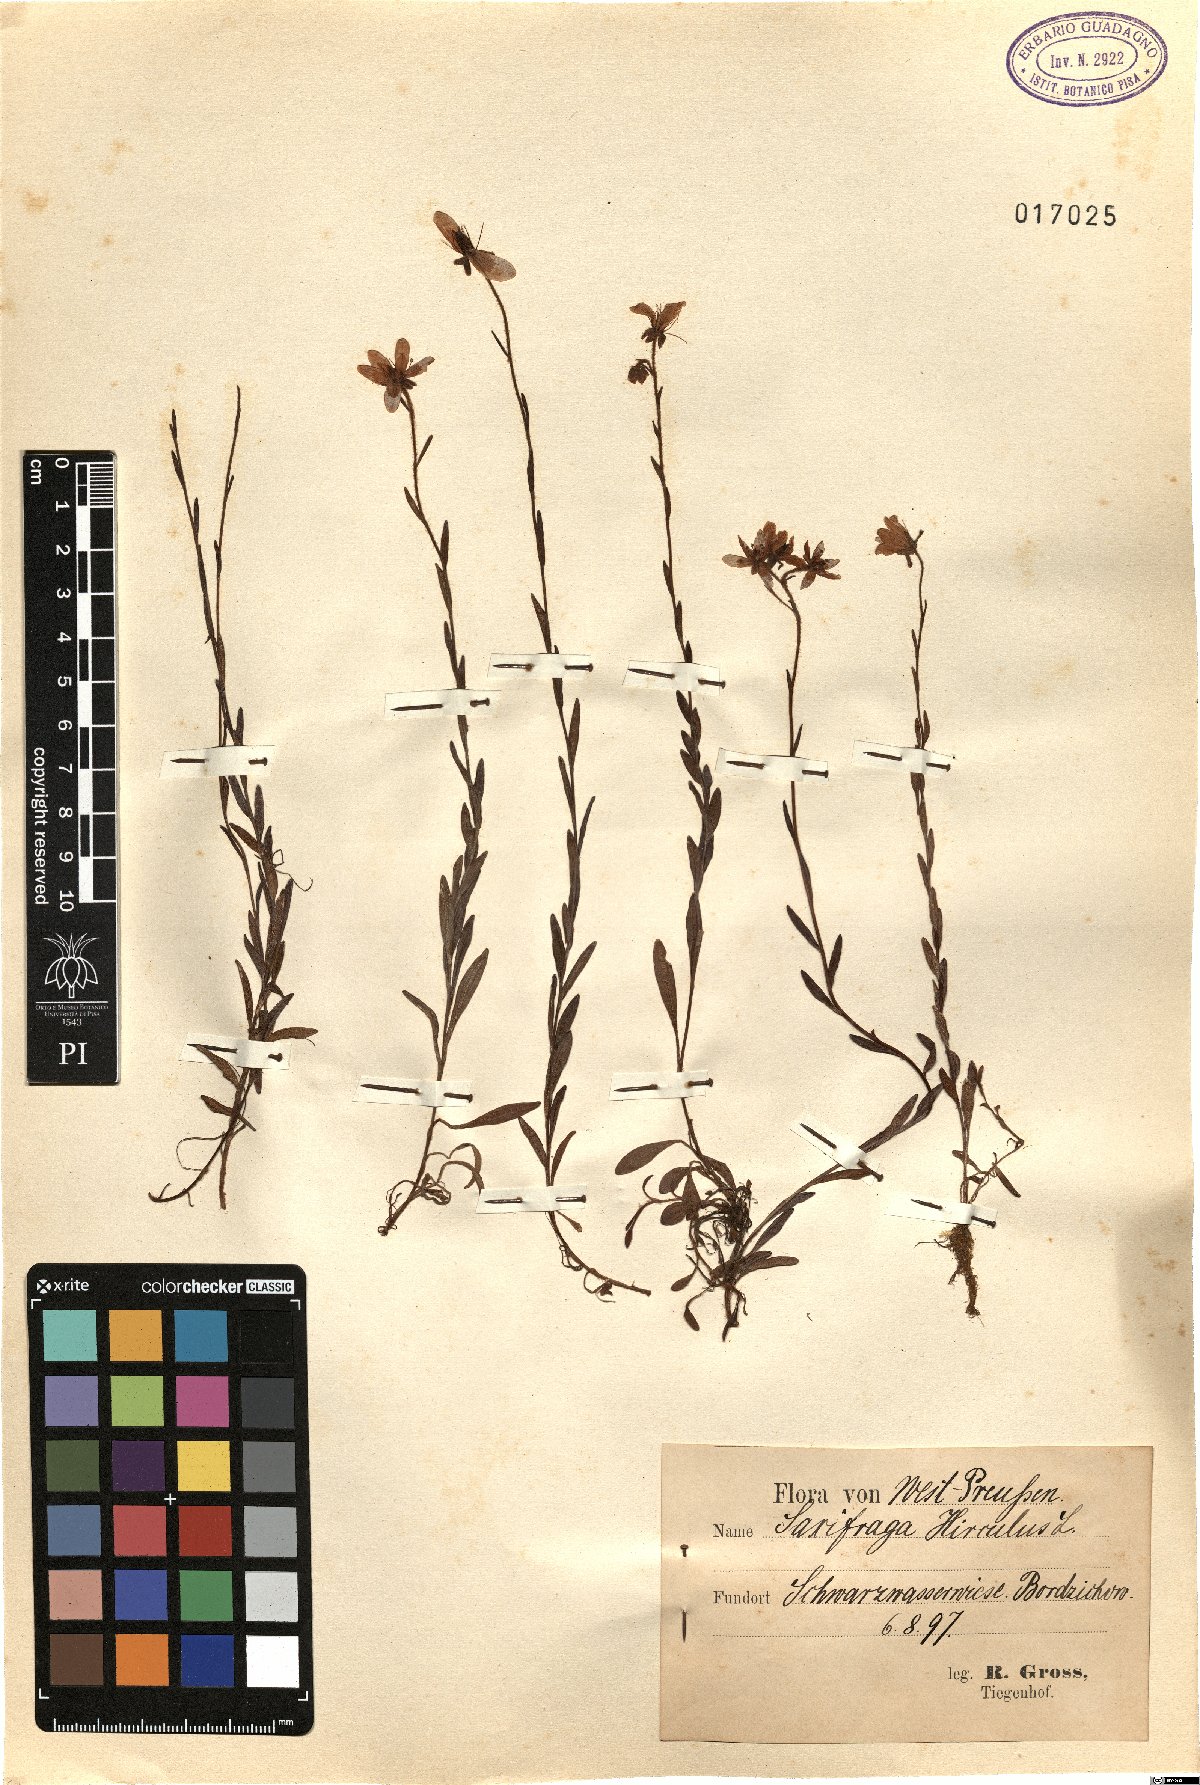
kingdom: Plantae
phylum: Tracheophyta
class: Magnoliopsida
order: Saxifragales
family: Saxifragaceae
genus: Saxifraga
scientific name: Saxifraga hirculus
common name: Yellow marsh saxifrage
